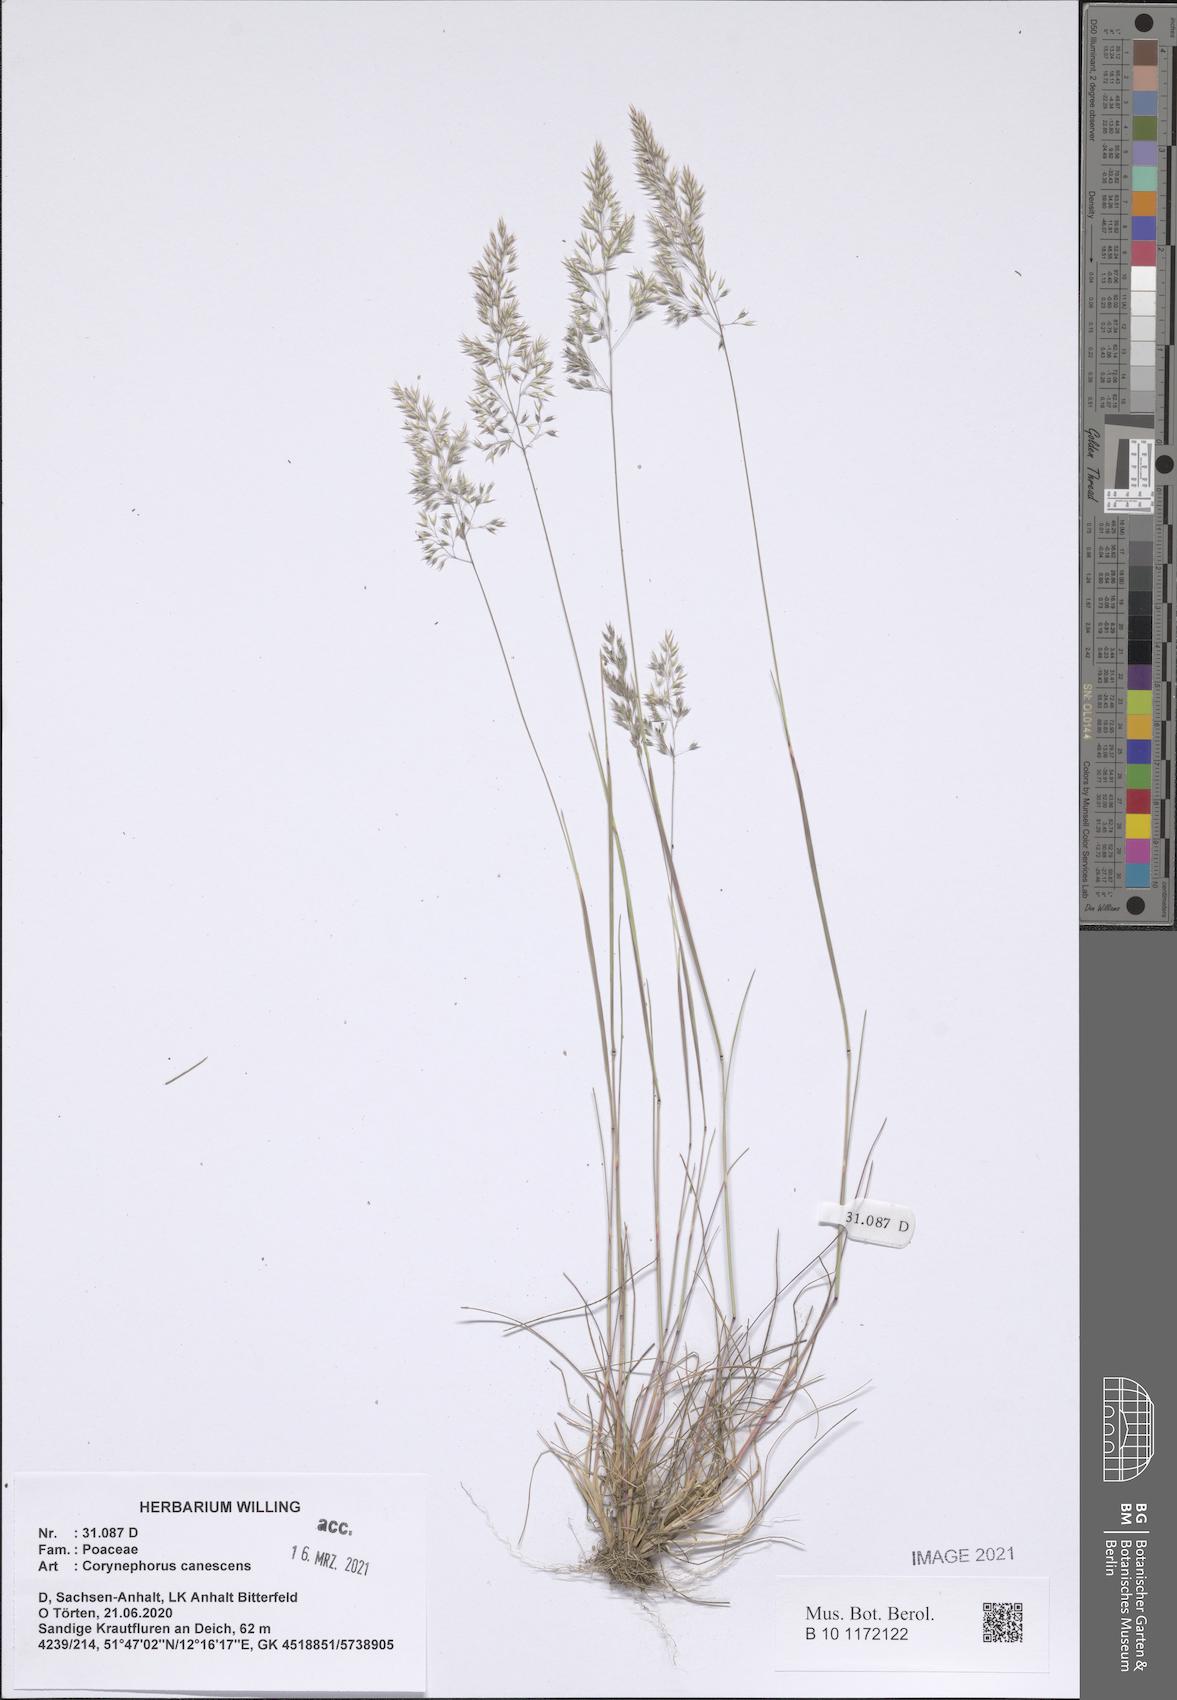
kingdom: Plantae
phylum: Tracheophyta
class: Liliopsida
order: Poales
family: Poaceae
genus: Corynephorus
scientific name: Corynephorus canescens
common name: Grey hair-grass
